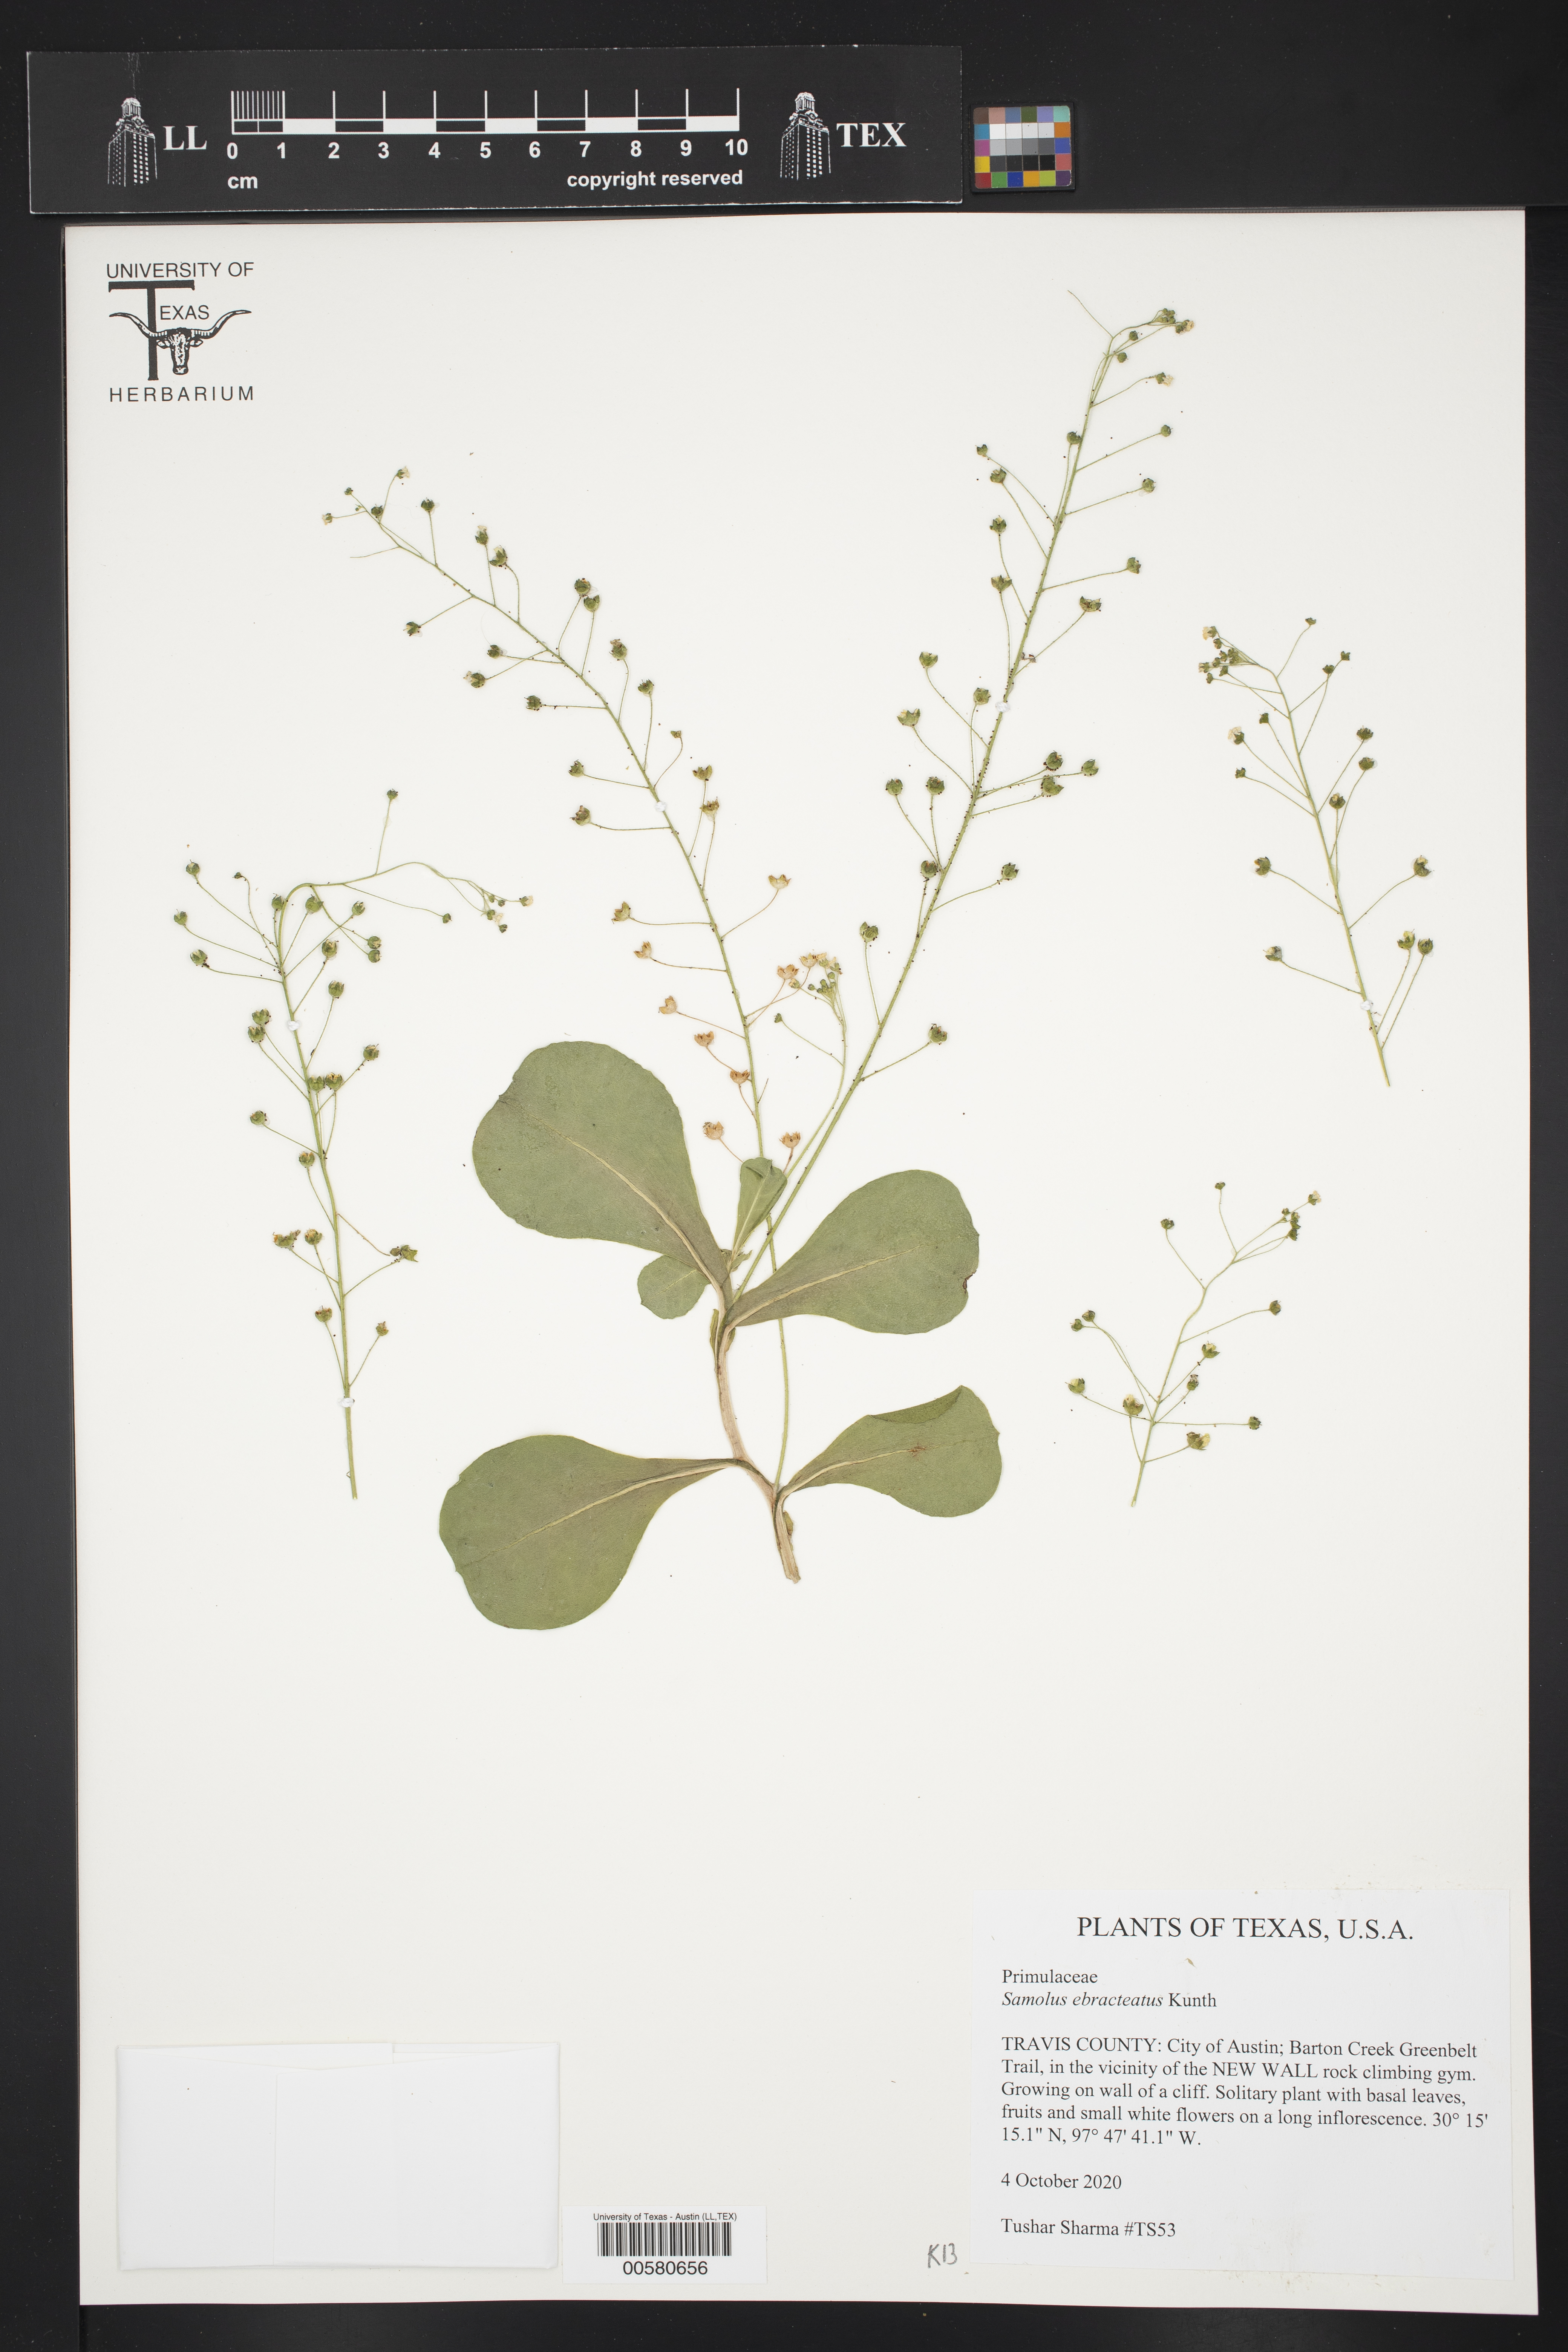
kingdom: Plantae
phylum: Tracheophyta
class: Magnoliopsida
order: Ericales
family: Primulaceae
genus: Samolus
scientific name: Samolus ebracteatus
